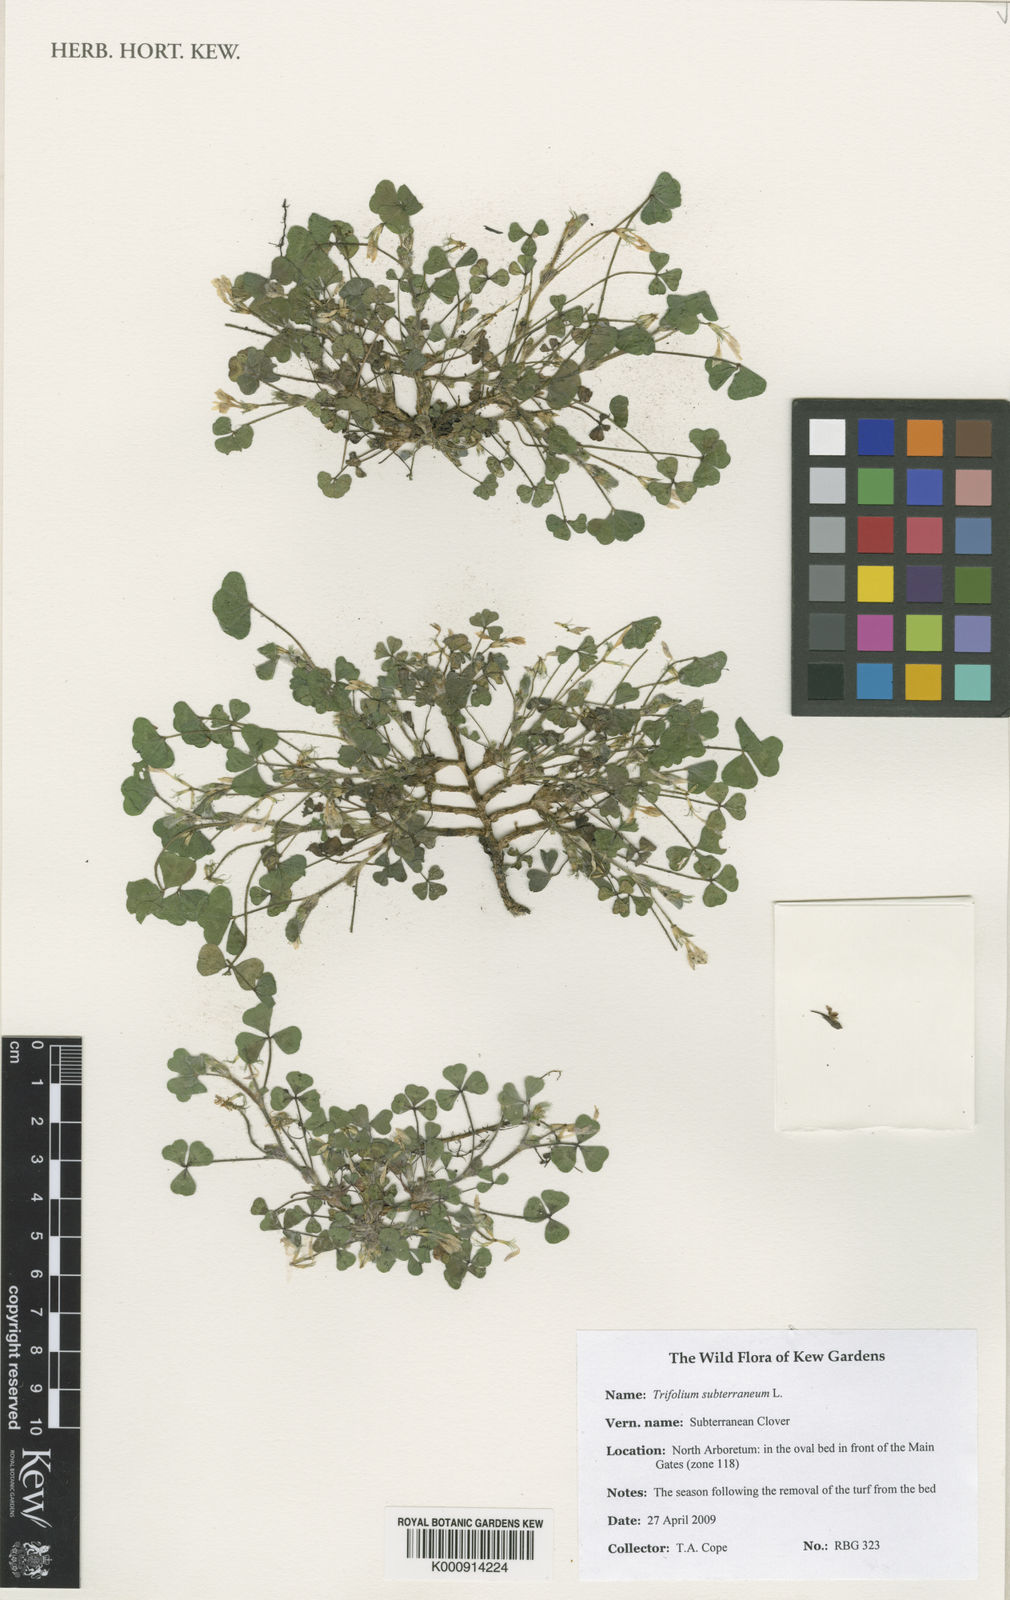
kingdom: Plantae
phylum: Tracheophyta
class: Magnoliopsida
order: Fabales
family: Fabaceae
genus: Trifolium
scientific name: Trifolium subterraneum
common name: Subterranean clover
